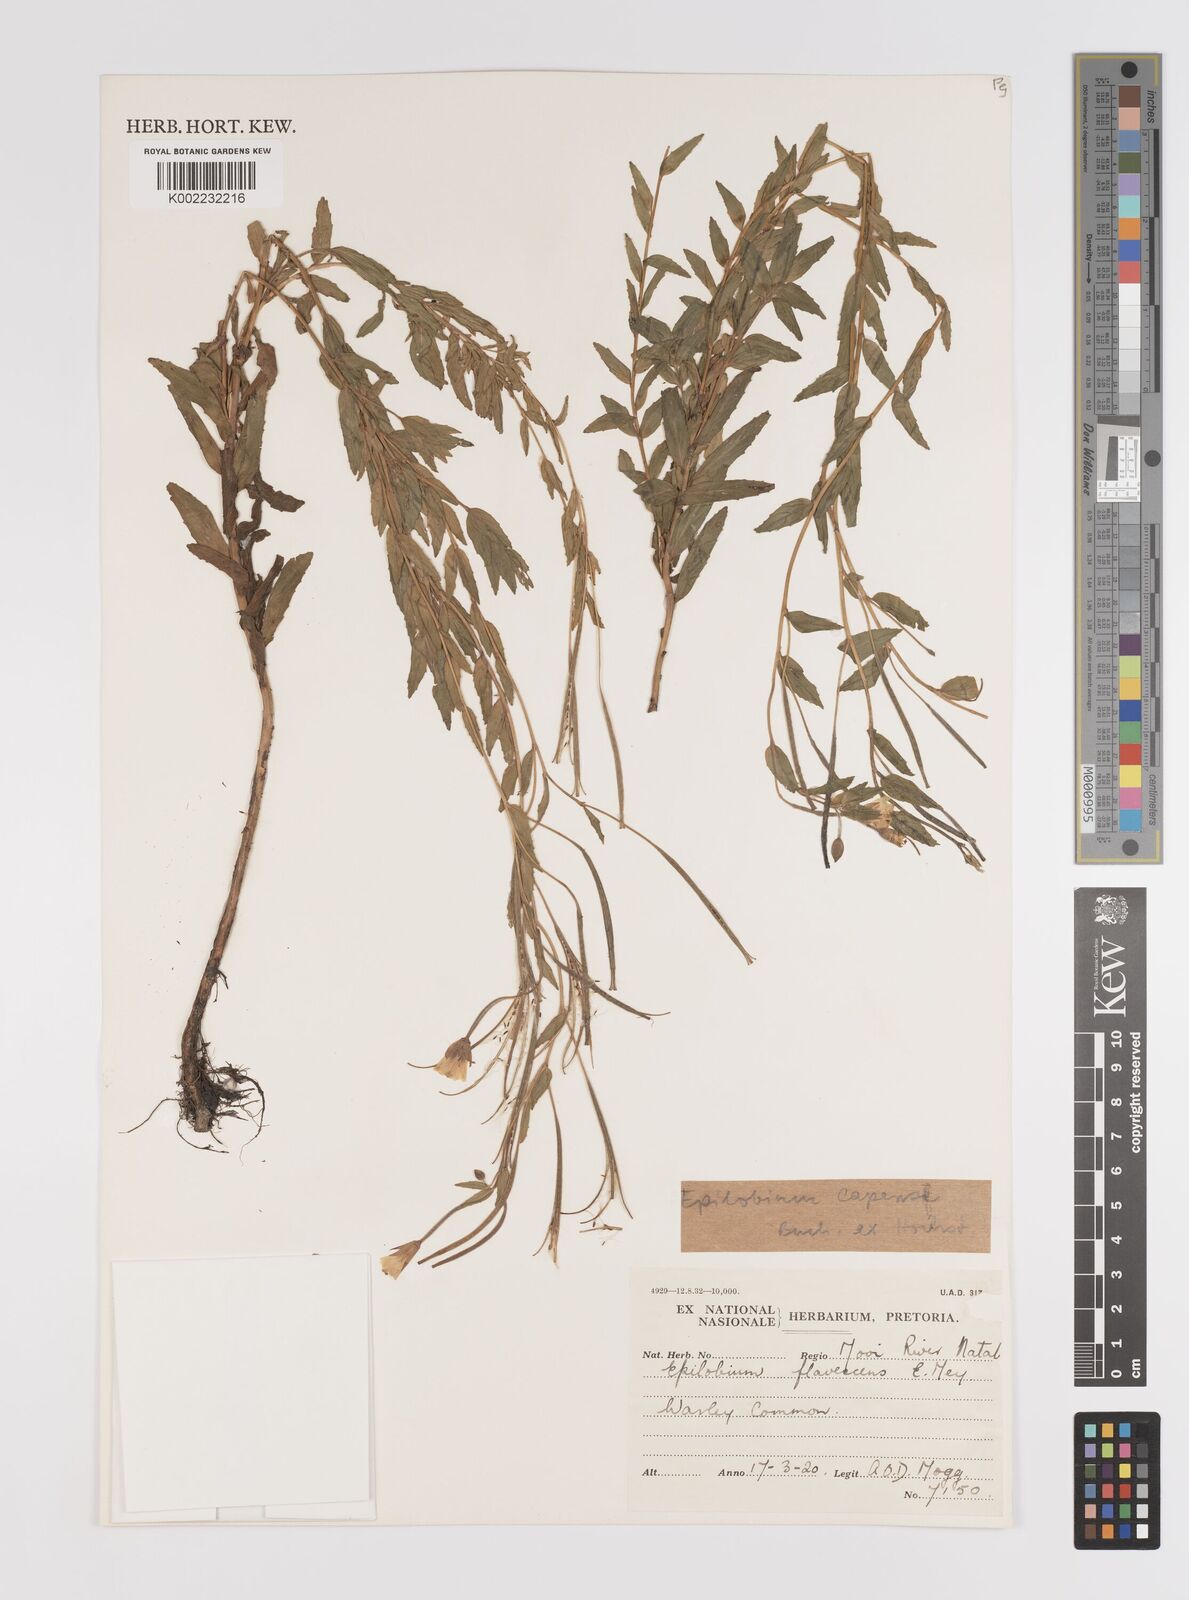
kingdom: Plantae
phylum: Tracheophyta
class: Magnoliopsida
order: Myrtales
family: Onagraceae
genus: Epilobium
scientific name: Epilobium capense
